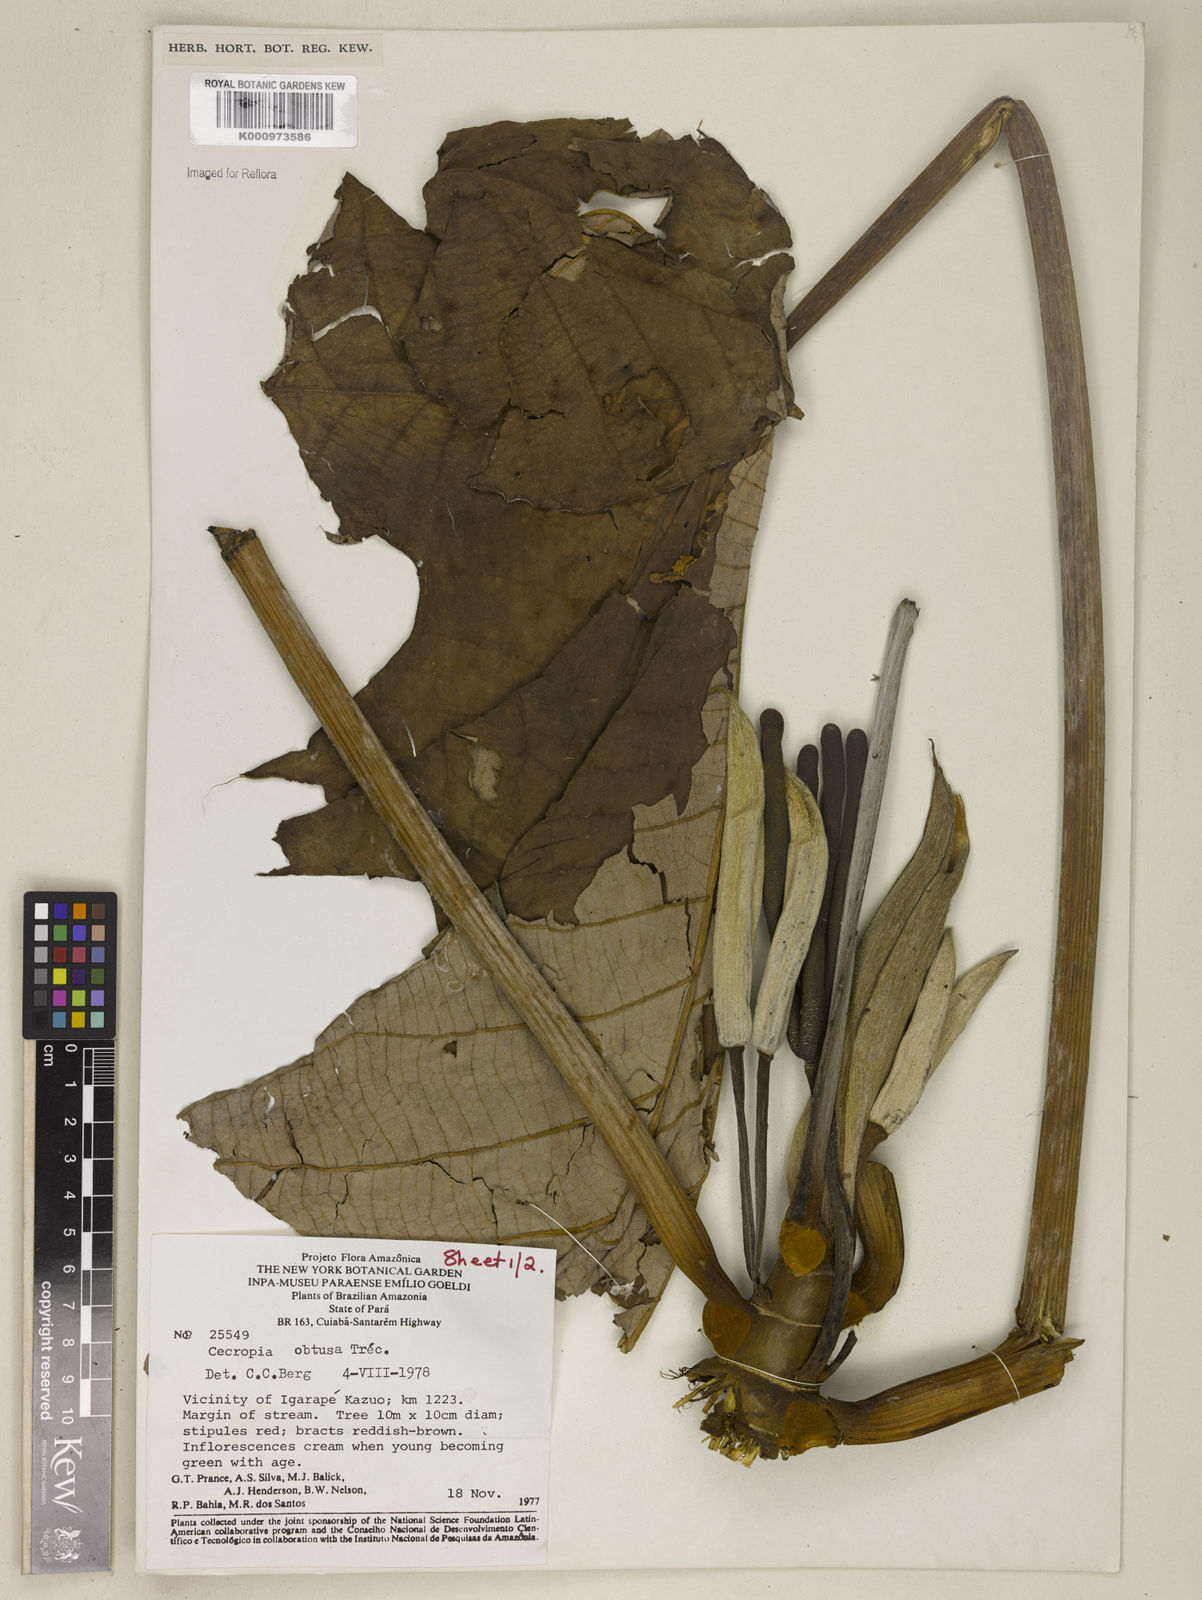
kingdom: Plantae
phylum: Tracheophyta
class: Magnoliopsida
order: Rosales
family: Urticaceae
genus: Cecropia
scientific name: Cecropia
